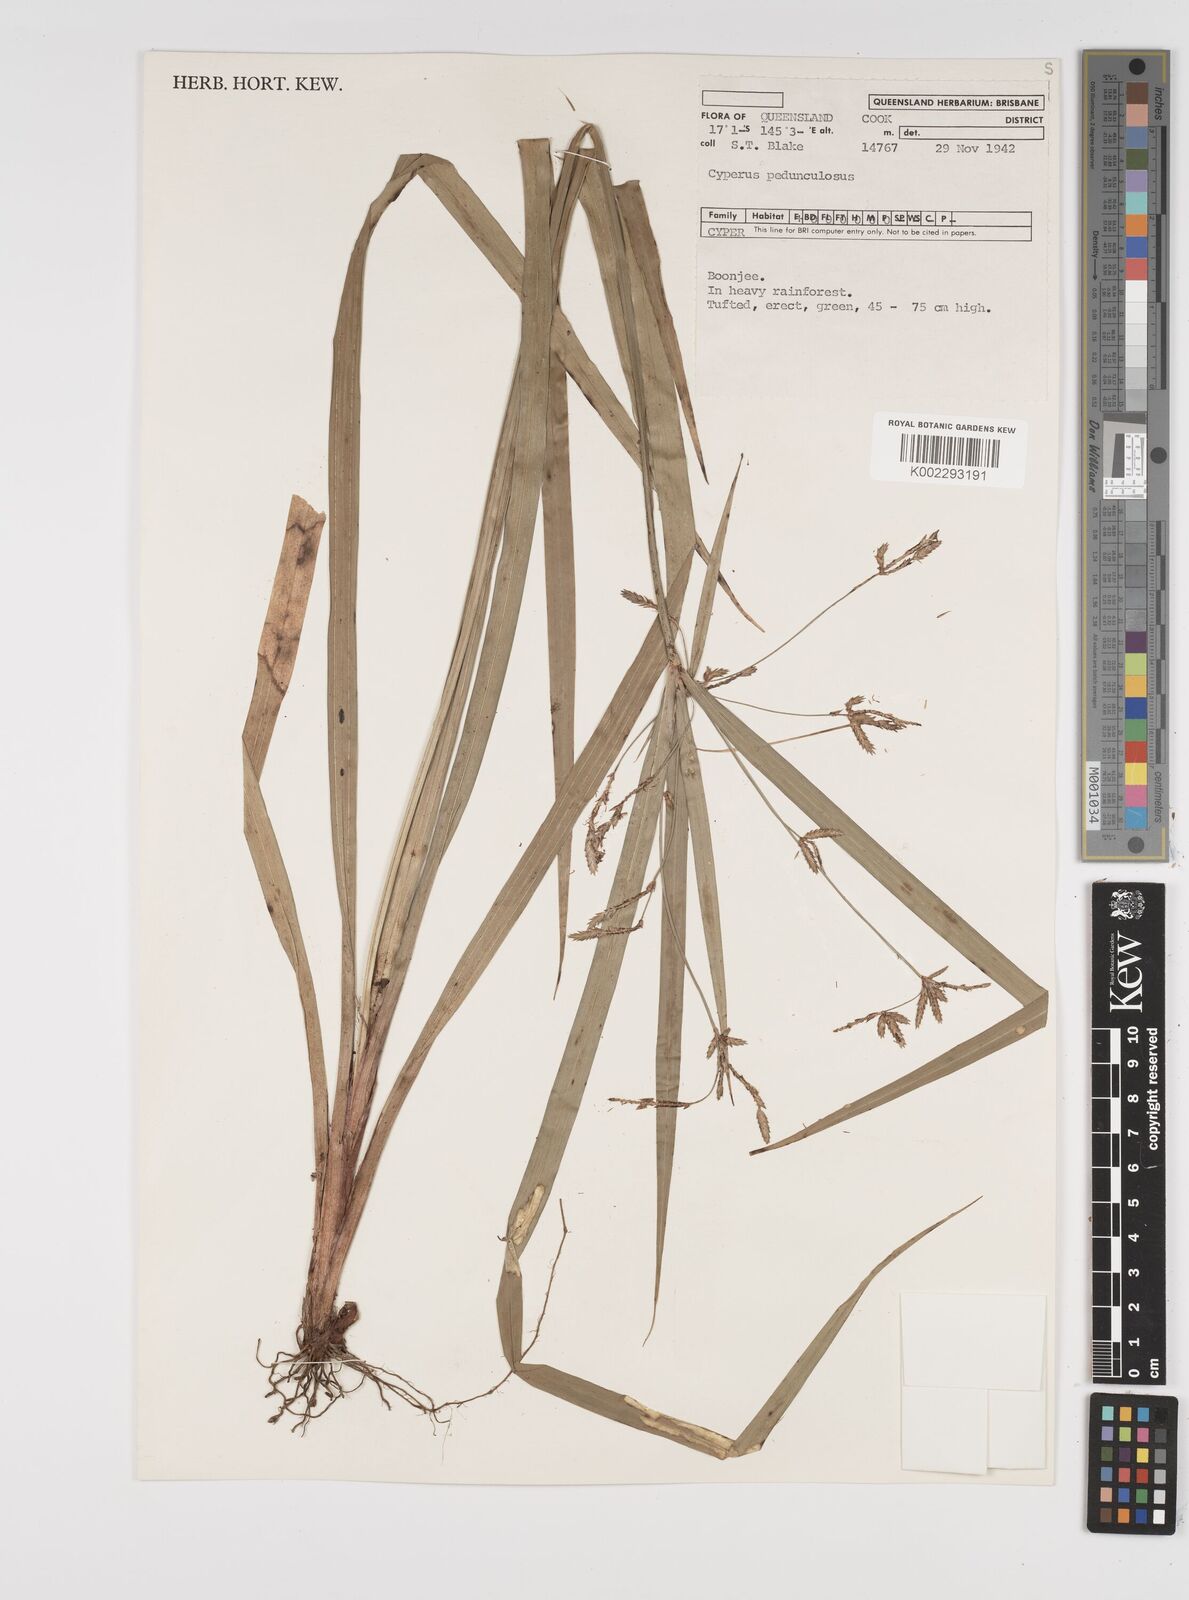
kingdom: Plantae
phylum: Tracheophyta
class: Liliopsida
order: Poales
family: Cyperaceae
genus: Cyperus
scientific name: Cyperus pedunculosus
